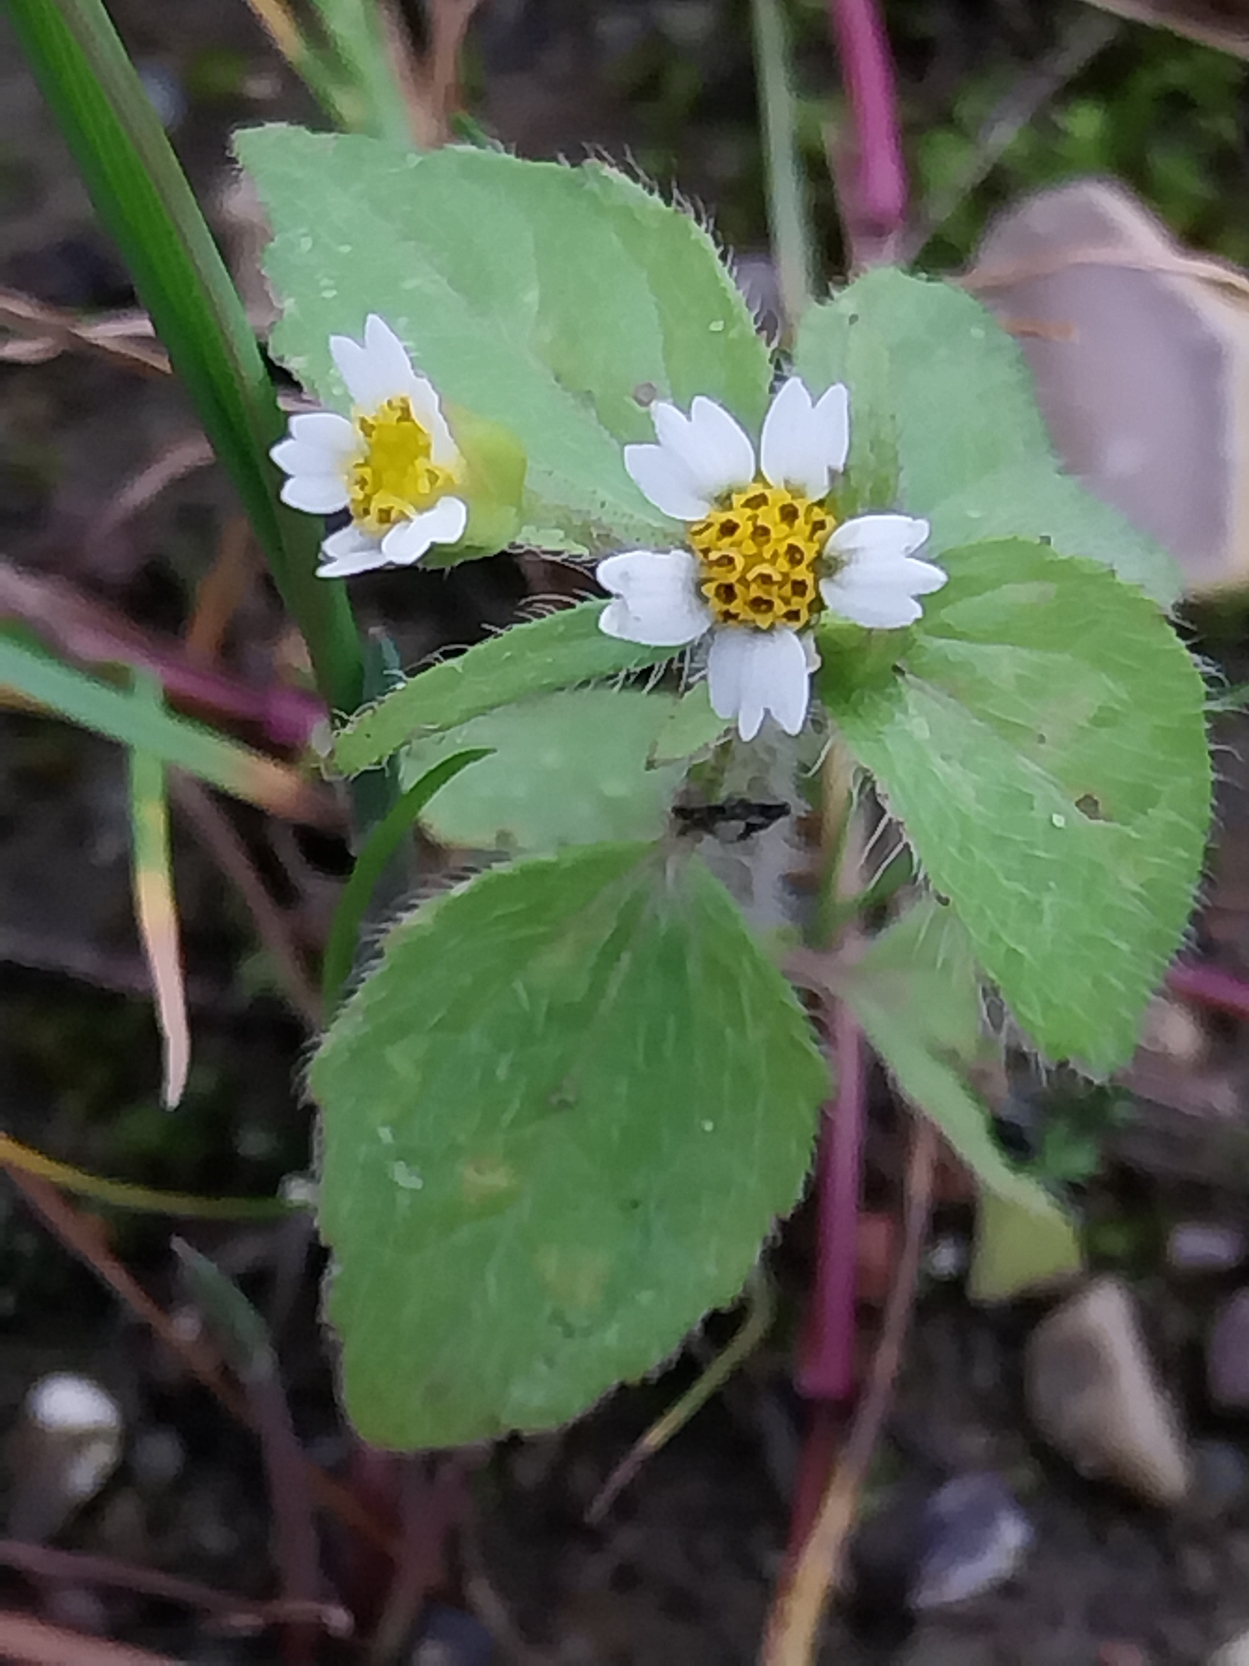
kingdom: Plantae
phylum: Tracheophyta
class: Magnoliopsida
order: Asterales
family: Asteraceae
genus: Galinsoga
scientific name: Galinsoga quadriradiata
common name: Kirtel-kortstråle
